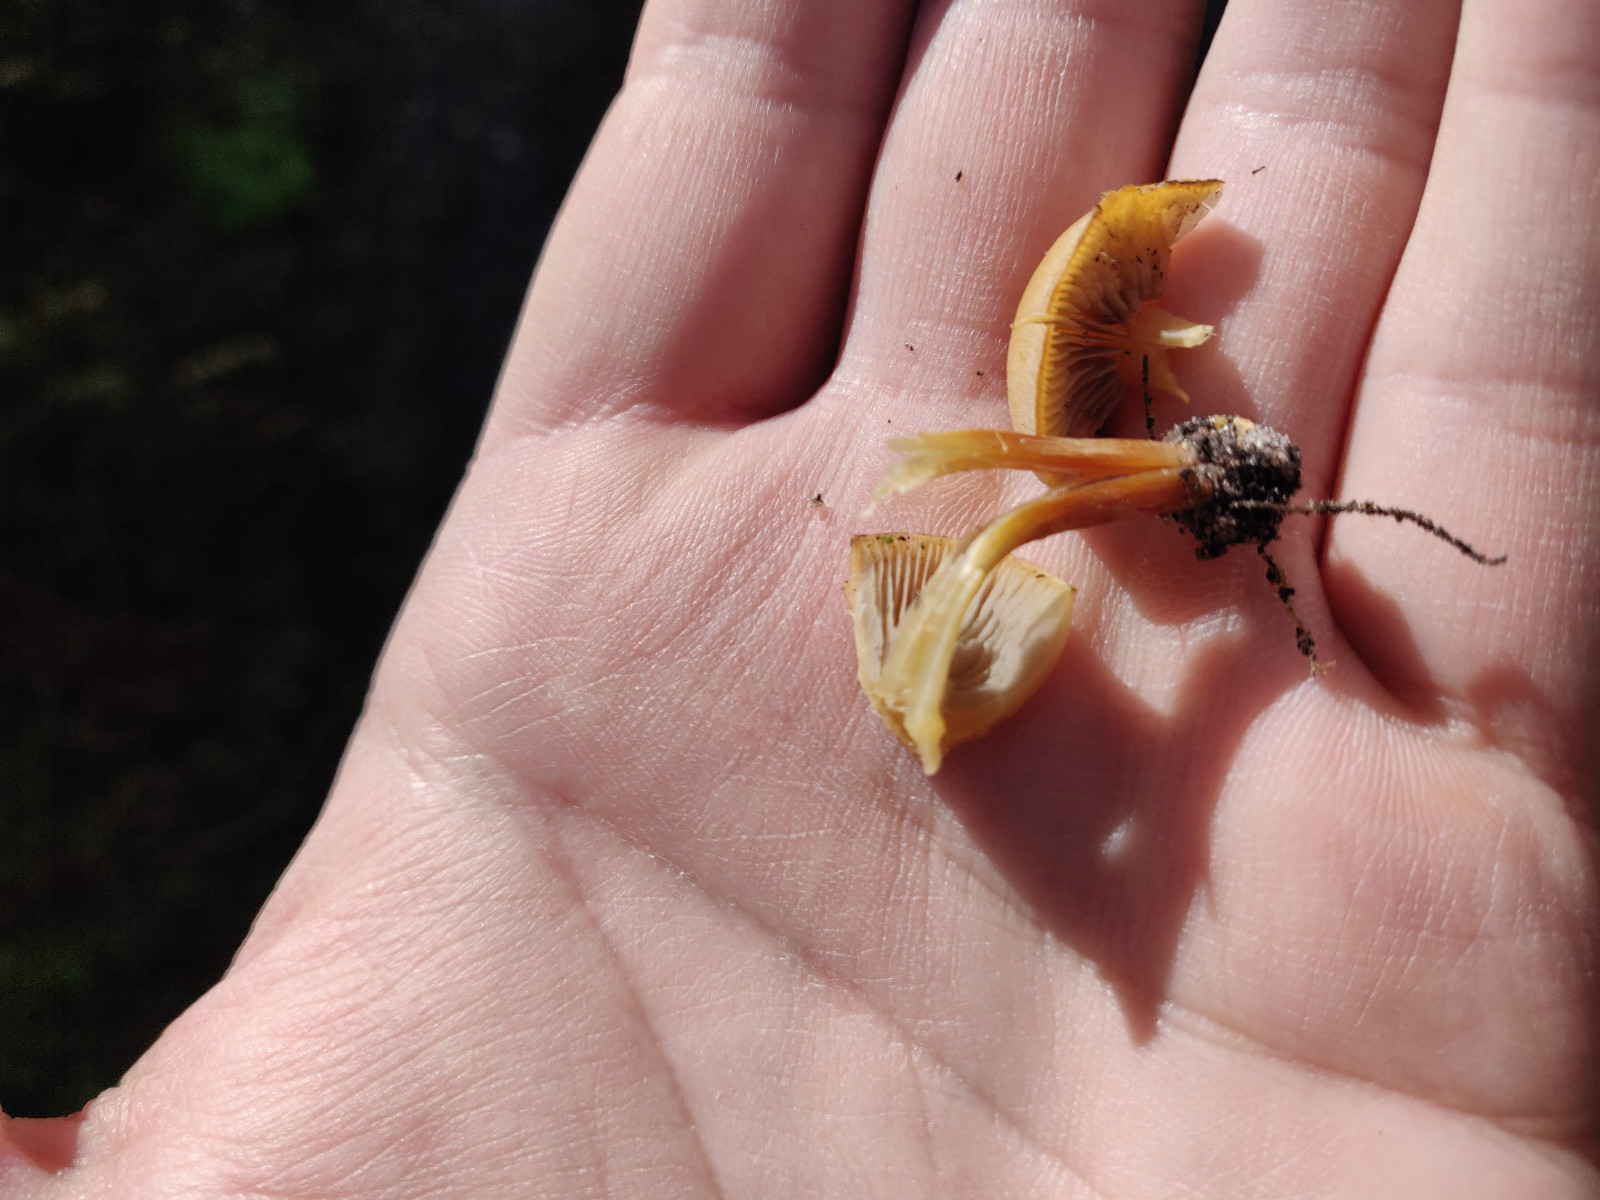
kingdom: Fungi
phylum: Basidiomycota
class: Agaricomycetes
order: Agaricales
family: Strophariaceae
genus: Hypholoma
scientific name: Hypholoma capnoides
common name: gran-svovlhat
